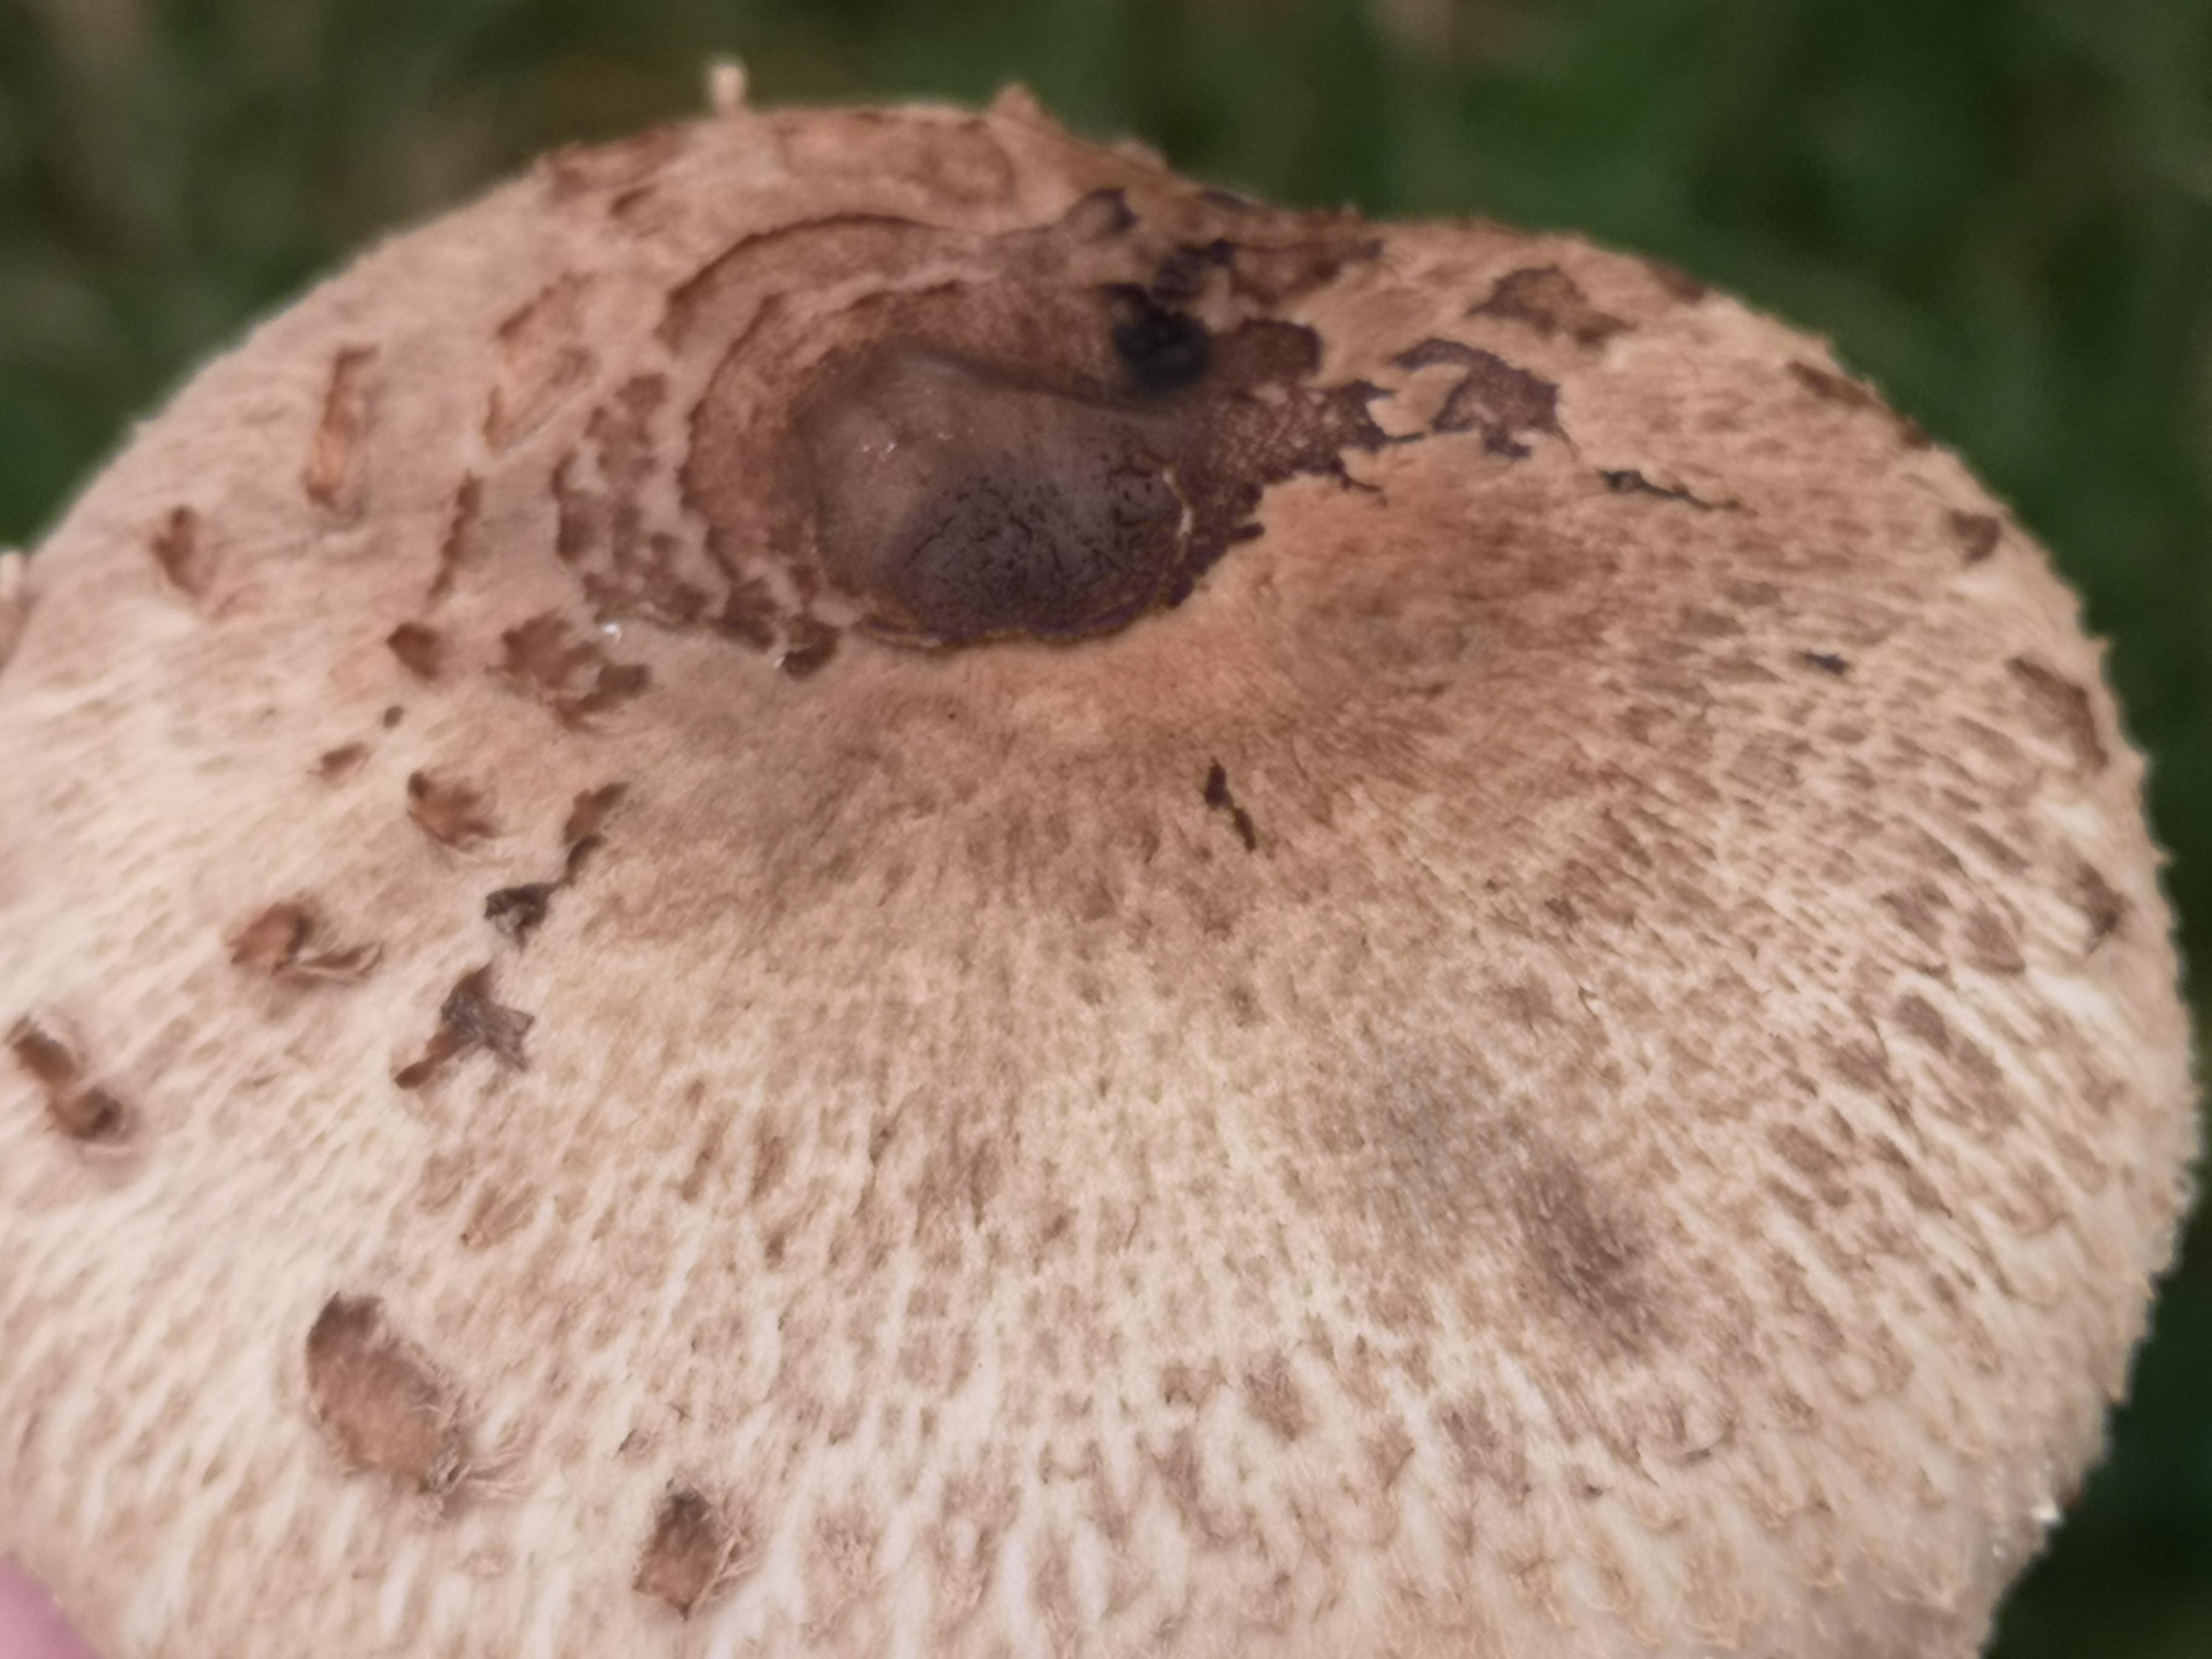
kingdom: Fungi
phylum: Basidiomycota
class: Agaricomycetes
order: Agaricales
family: Agaricaceae
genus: Macrolepiota
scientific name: Macrolepiota procera
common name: stor kæmpeparasolhat
